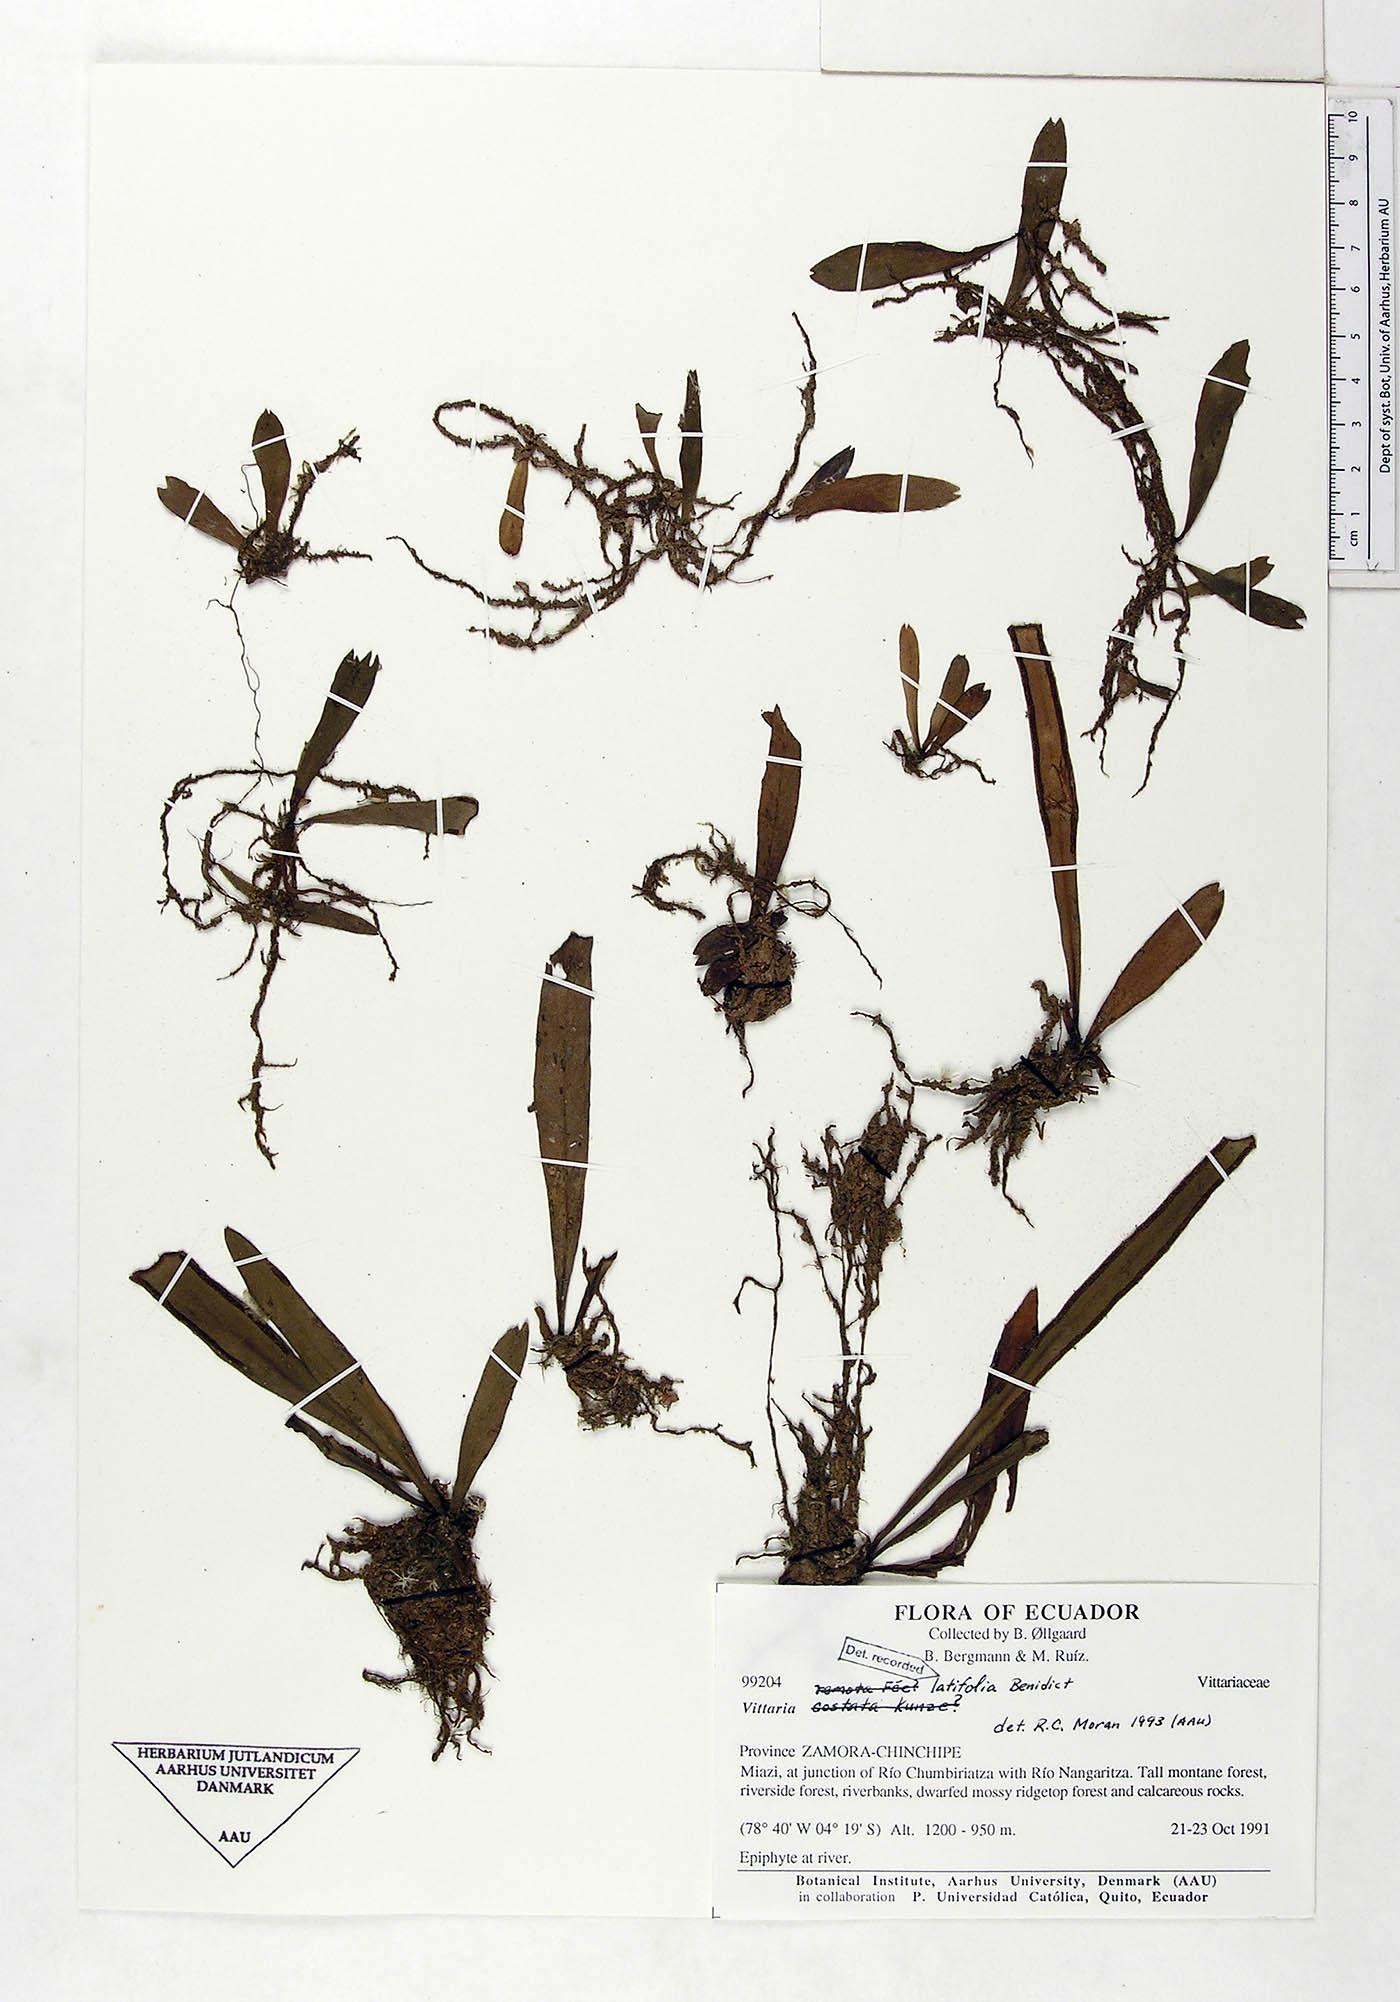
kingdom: Plantae
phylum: Tracheophyta
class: Polypodiopsida
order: Polypodiales
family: Pteridaceae
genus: Radiovittaria
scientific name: Radiovittaria latifolia
